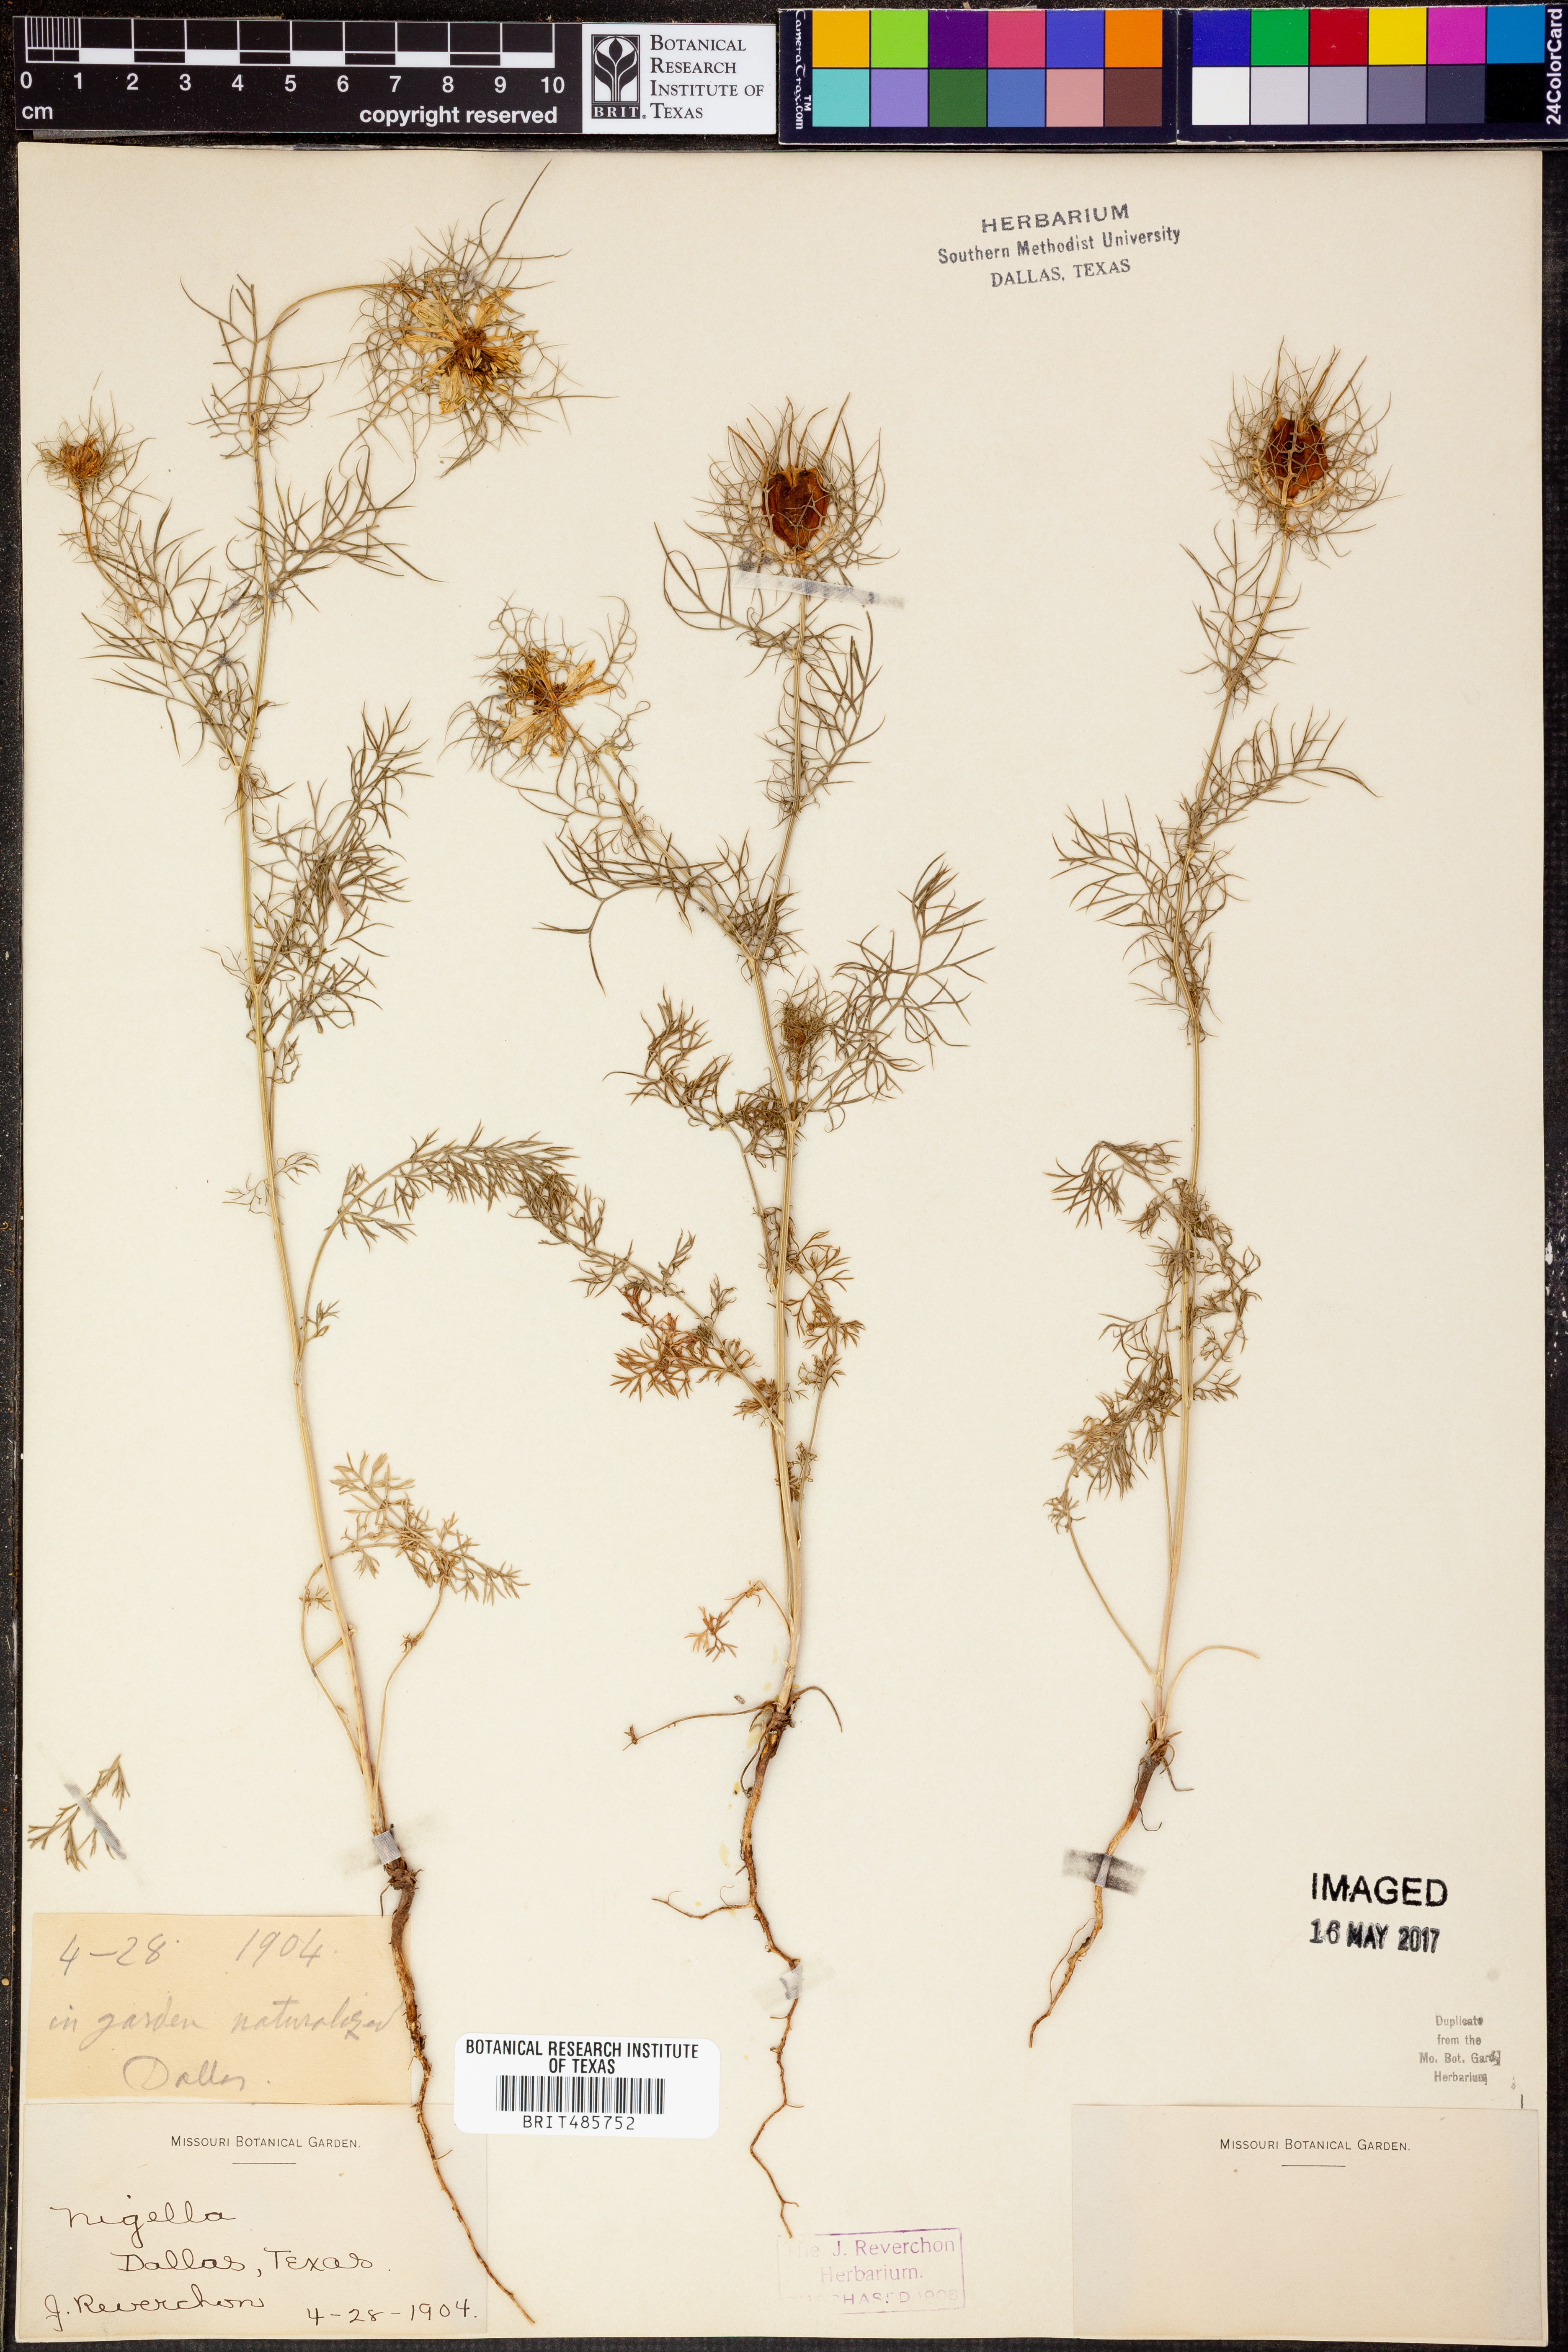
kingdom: Plantae
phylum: Tracheophyta
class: Magnoliopsida
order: Ranunculales
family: Ranunculaceae
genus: Nigella
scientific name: Nigella
